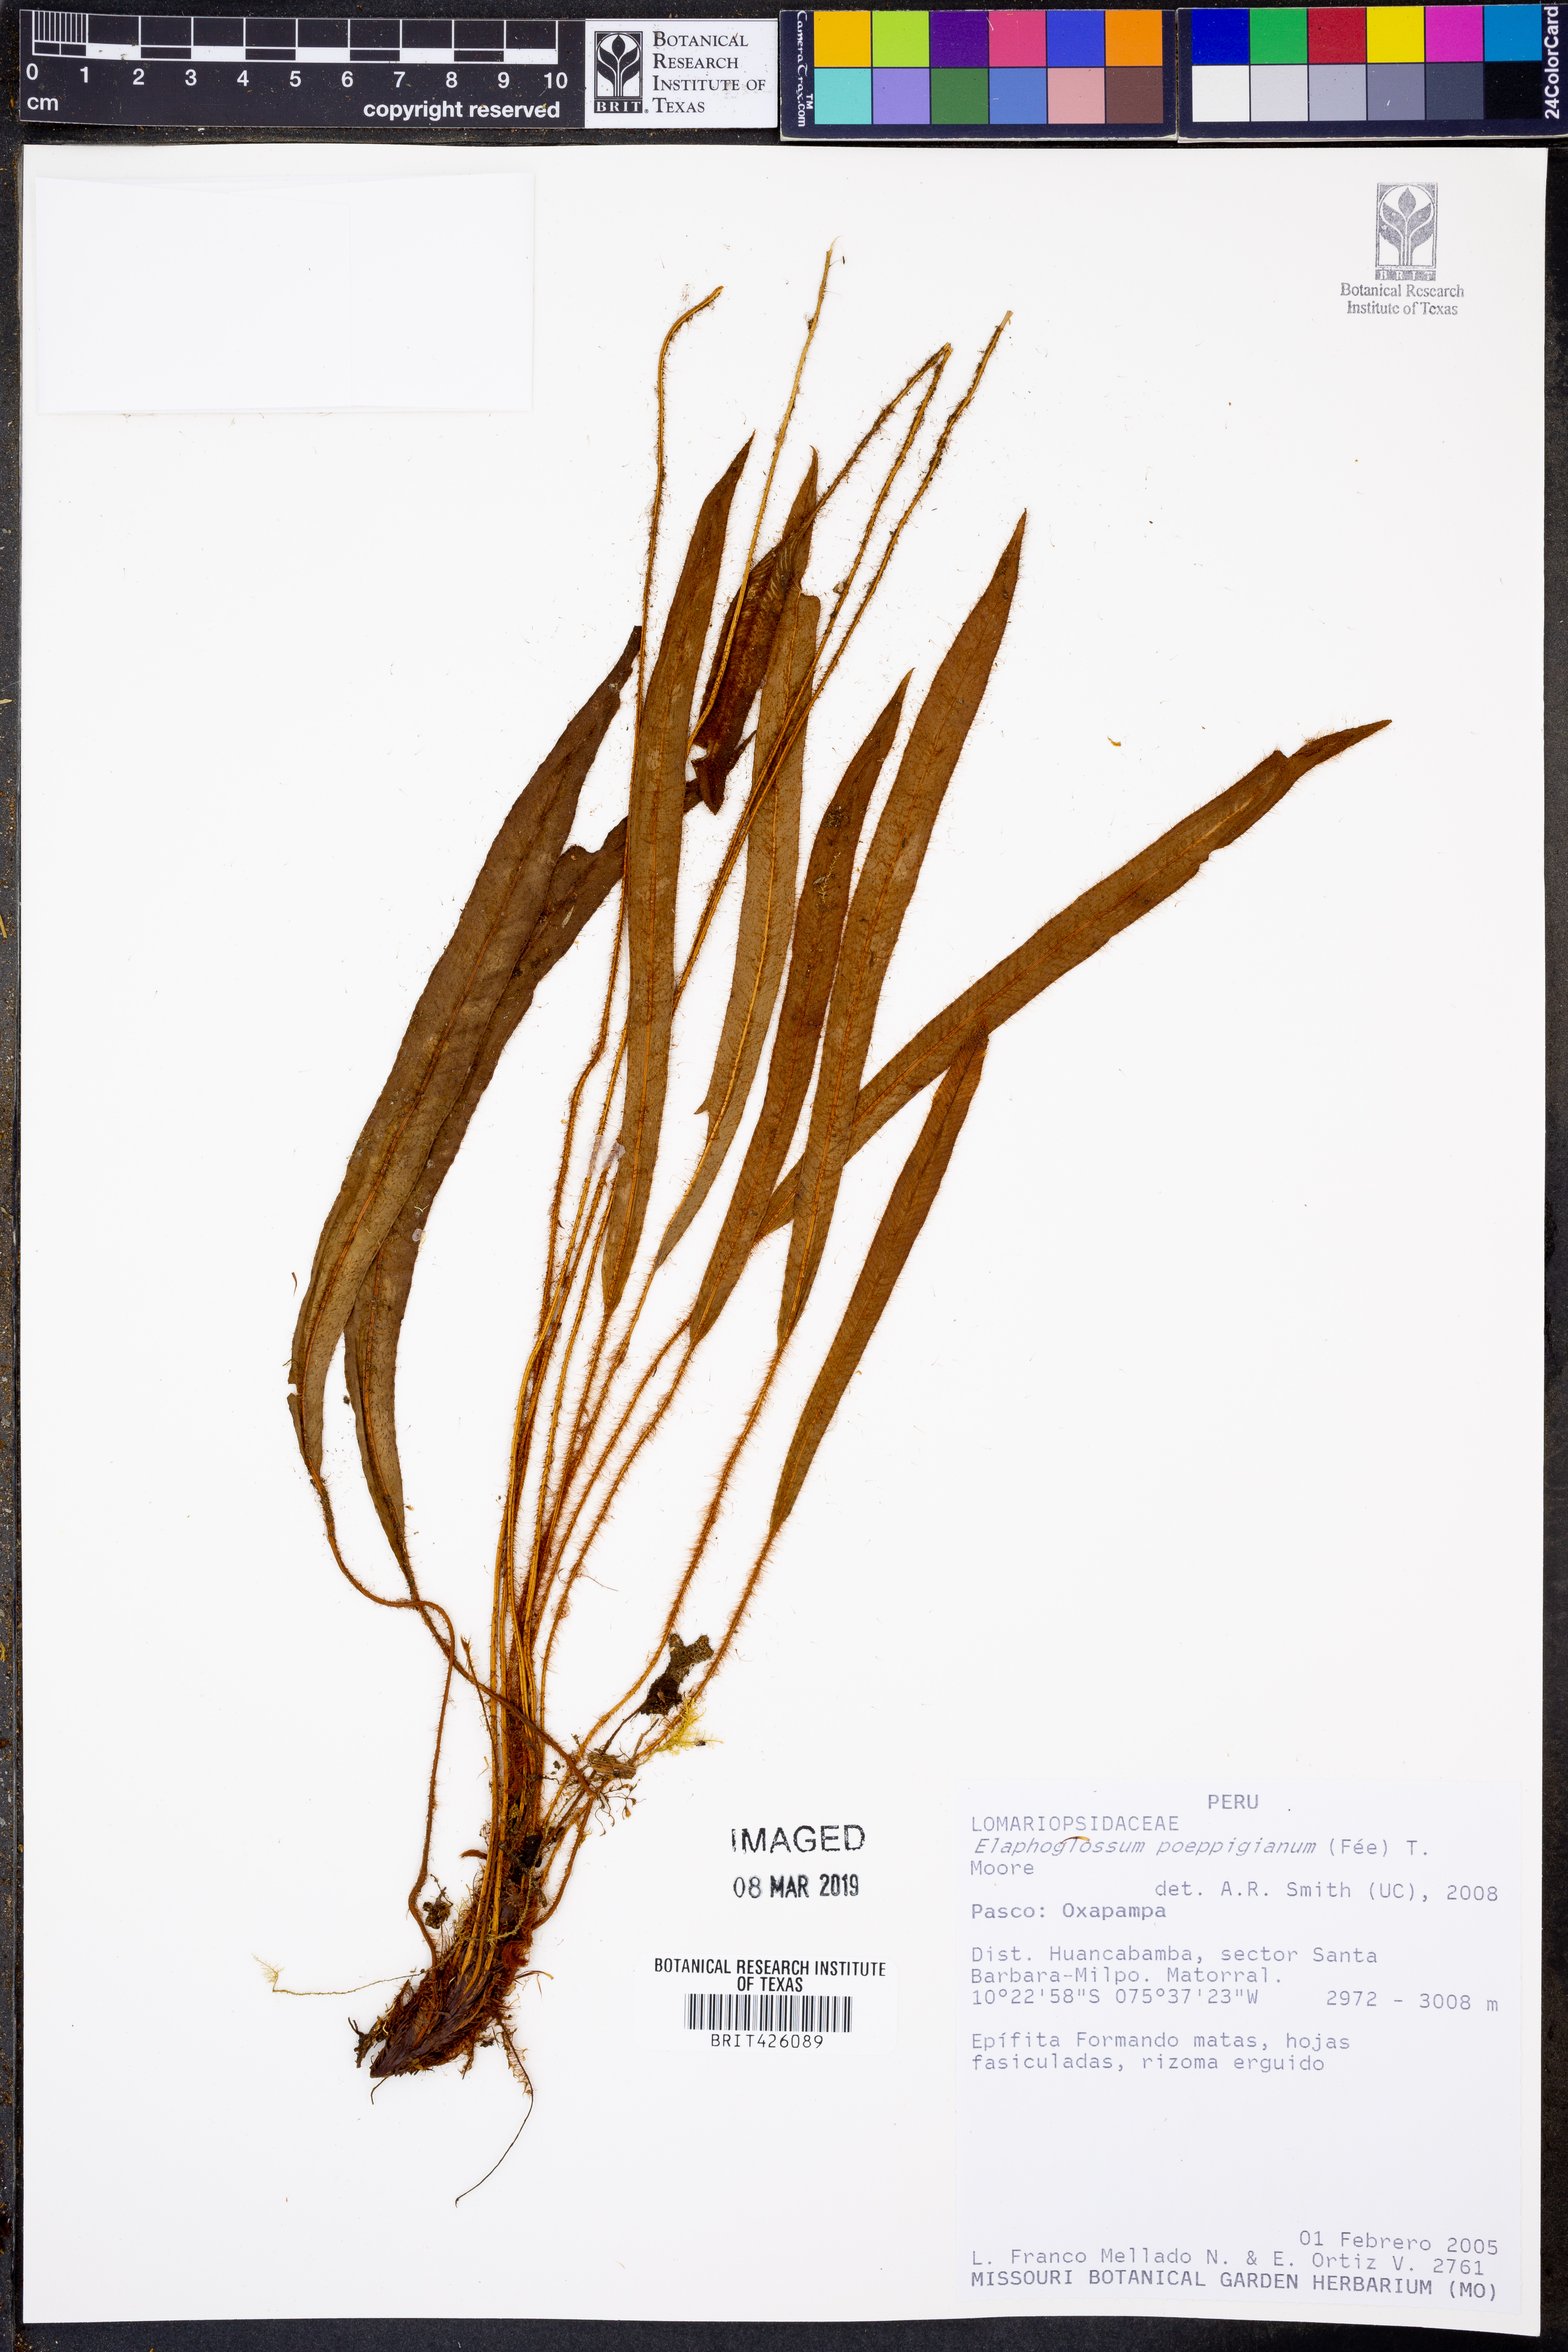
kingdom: Plantae
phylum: Tracheophyta
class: Polypodiopsida
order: Polypodiales
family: Dryopteridaceae
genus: Elaphoglossum
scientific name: Elaphoglossum poeppigianum
